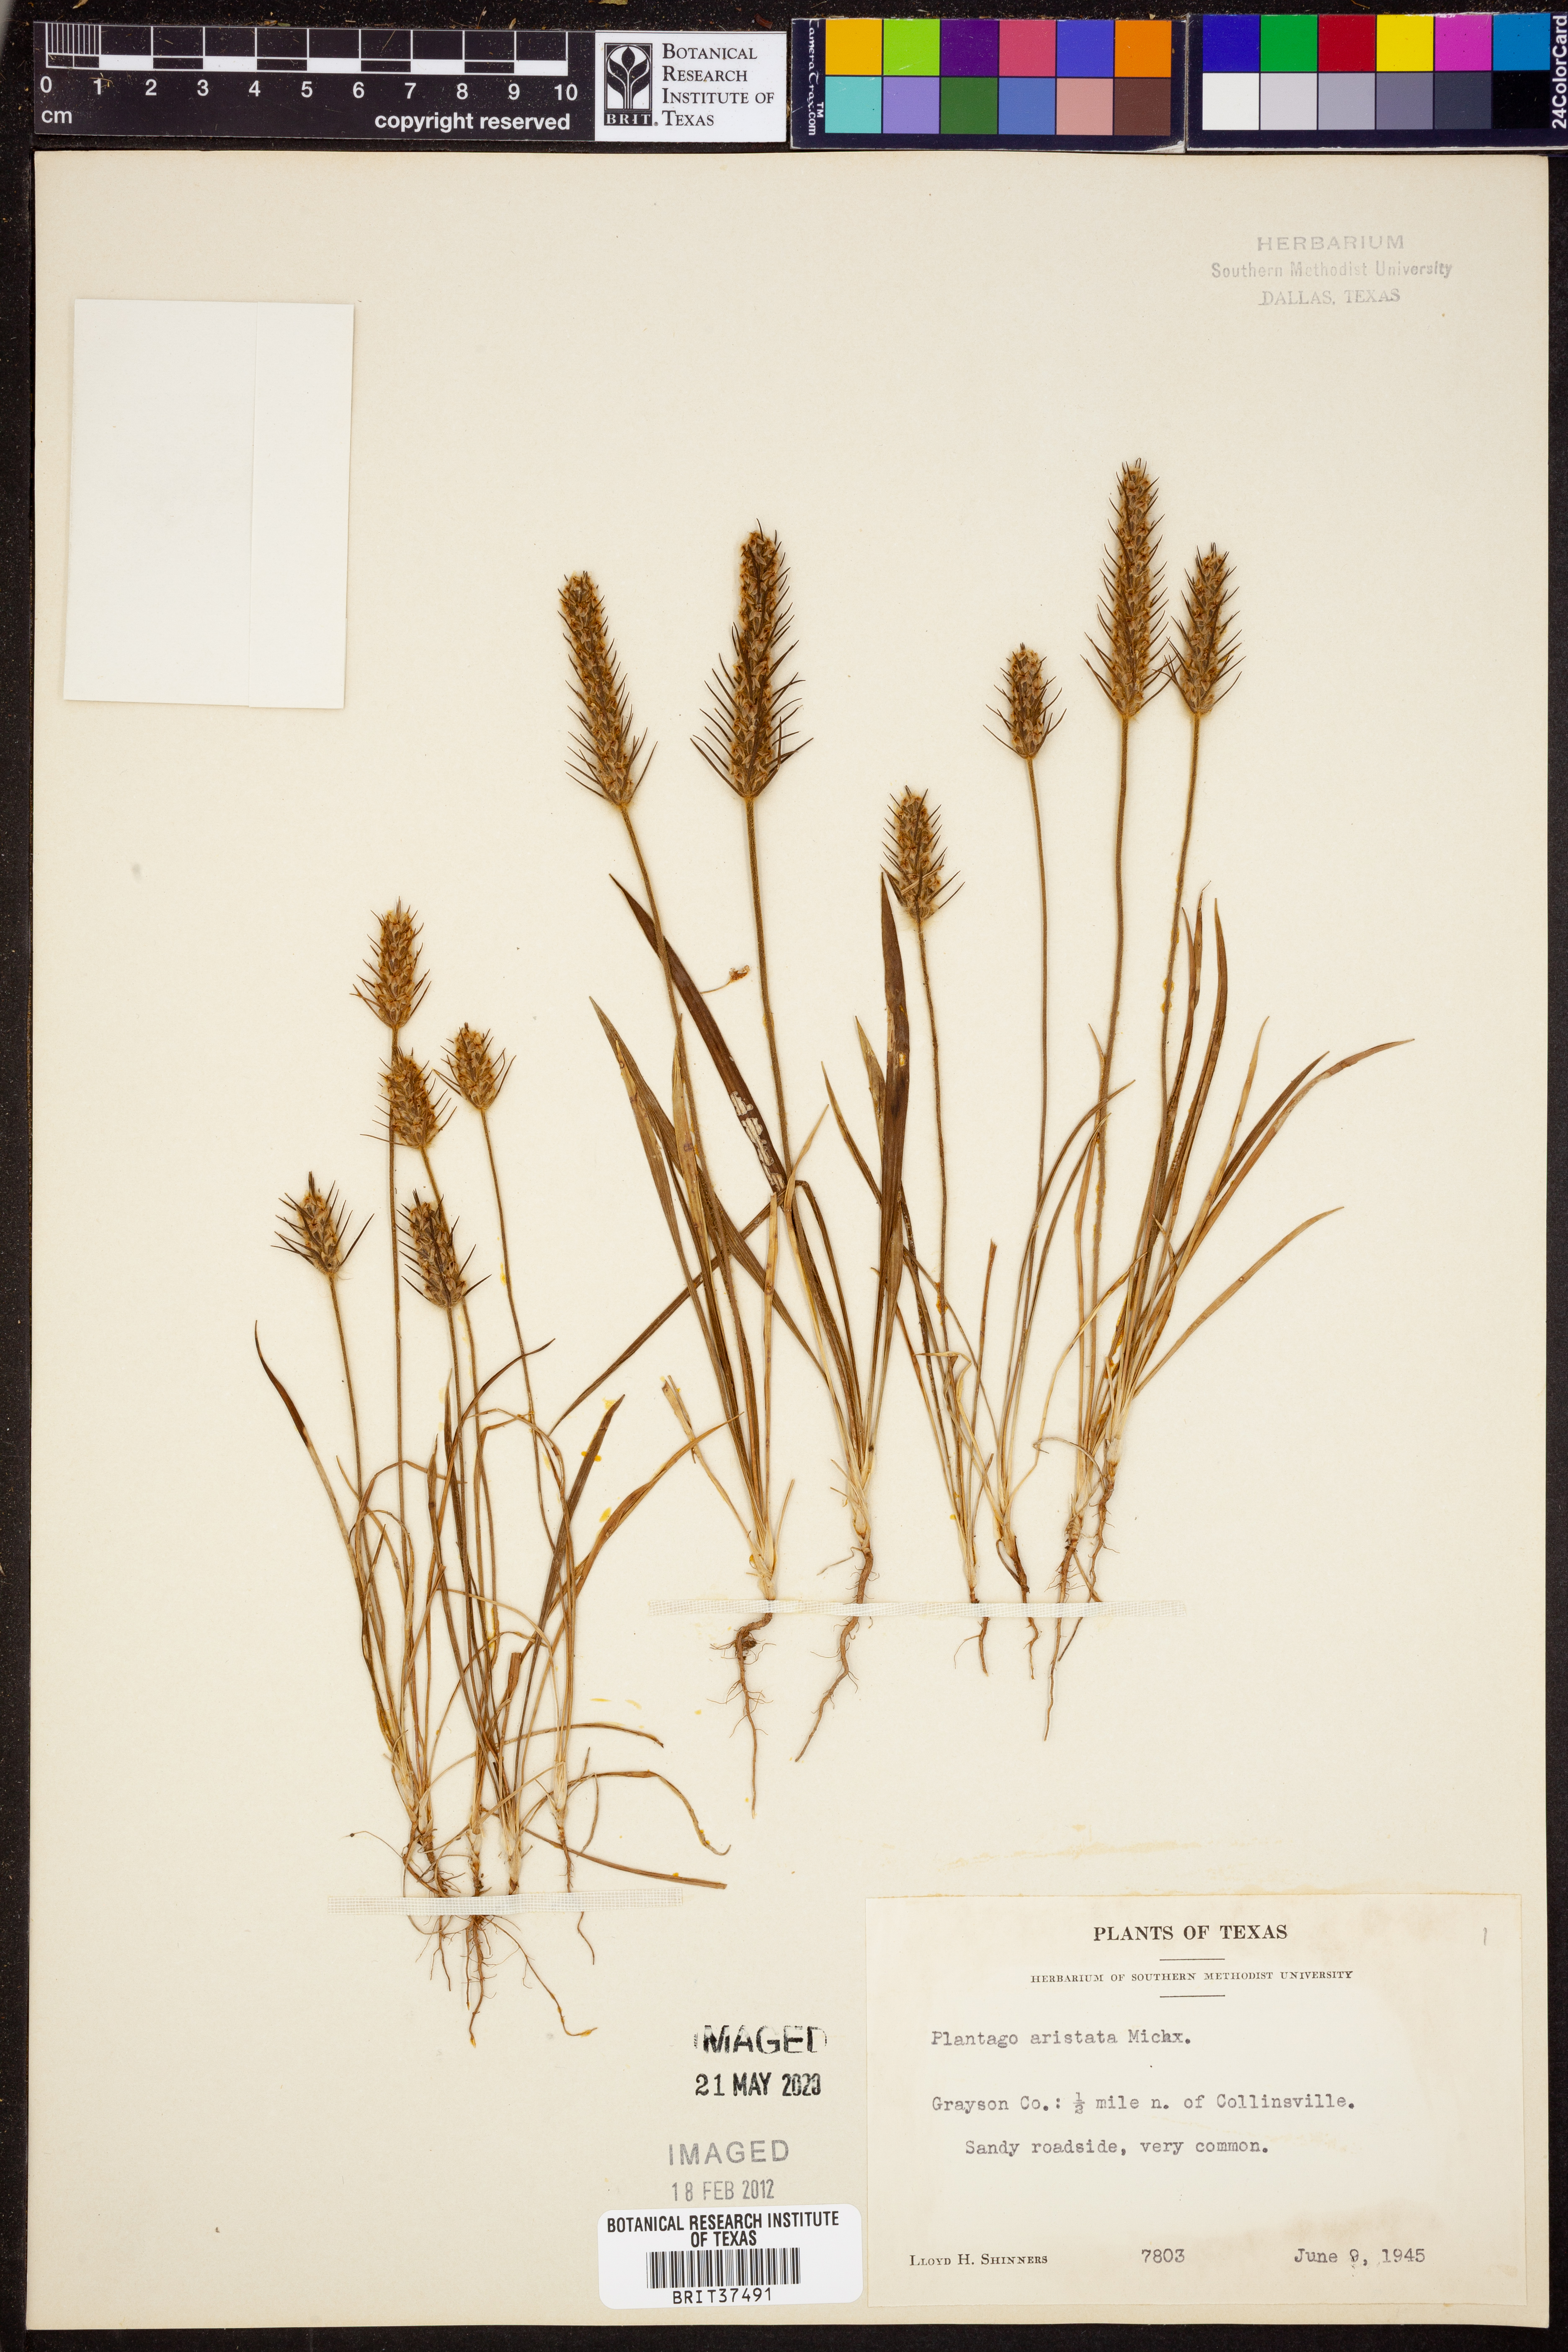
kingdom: Plantae
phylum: Tracheophyta
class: Magnoliopsida
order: Lamiales
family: Plantaginaceae
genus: Plantago
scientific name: Plantago aristata
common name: Bracted plantain
